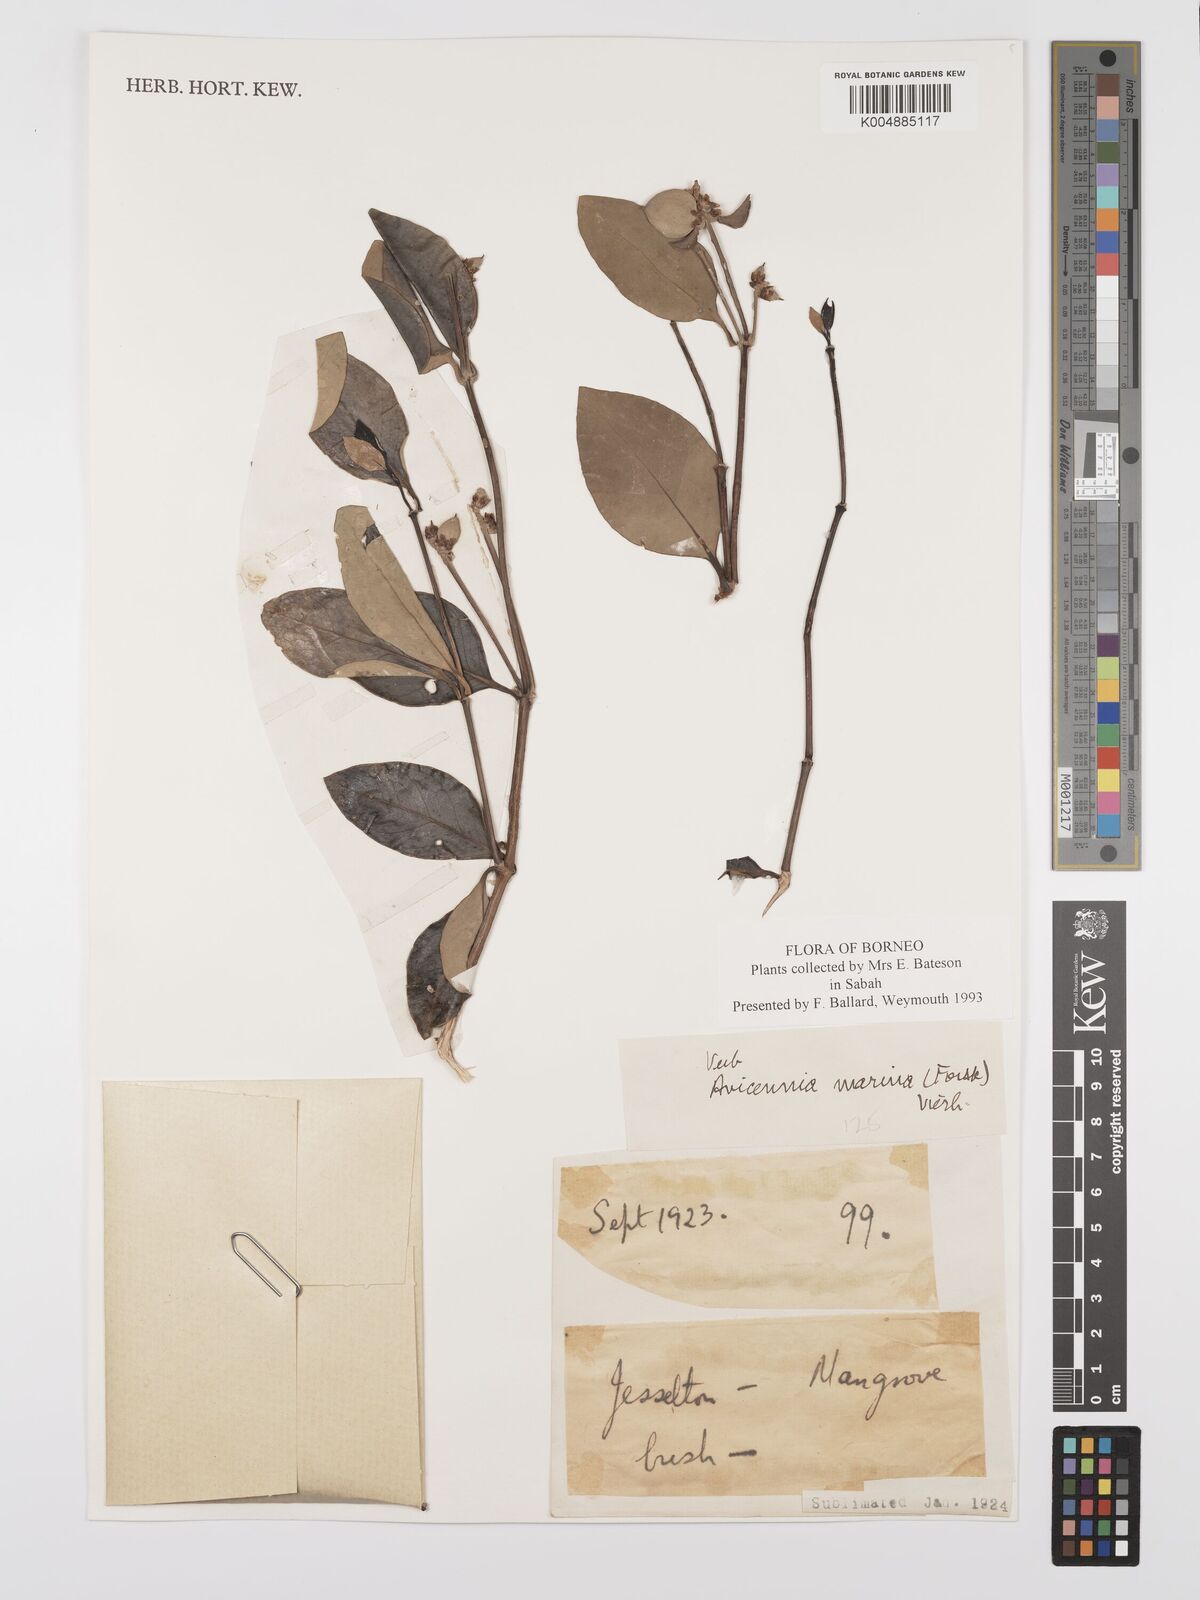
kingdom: Plantae
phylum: Tracheophyta
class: Magnoliopsida
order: Lamiales
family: Acanthaceae
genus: Avicennia
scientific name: Avicennia marina
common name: Gray mangrove
